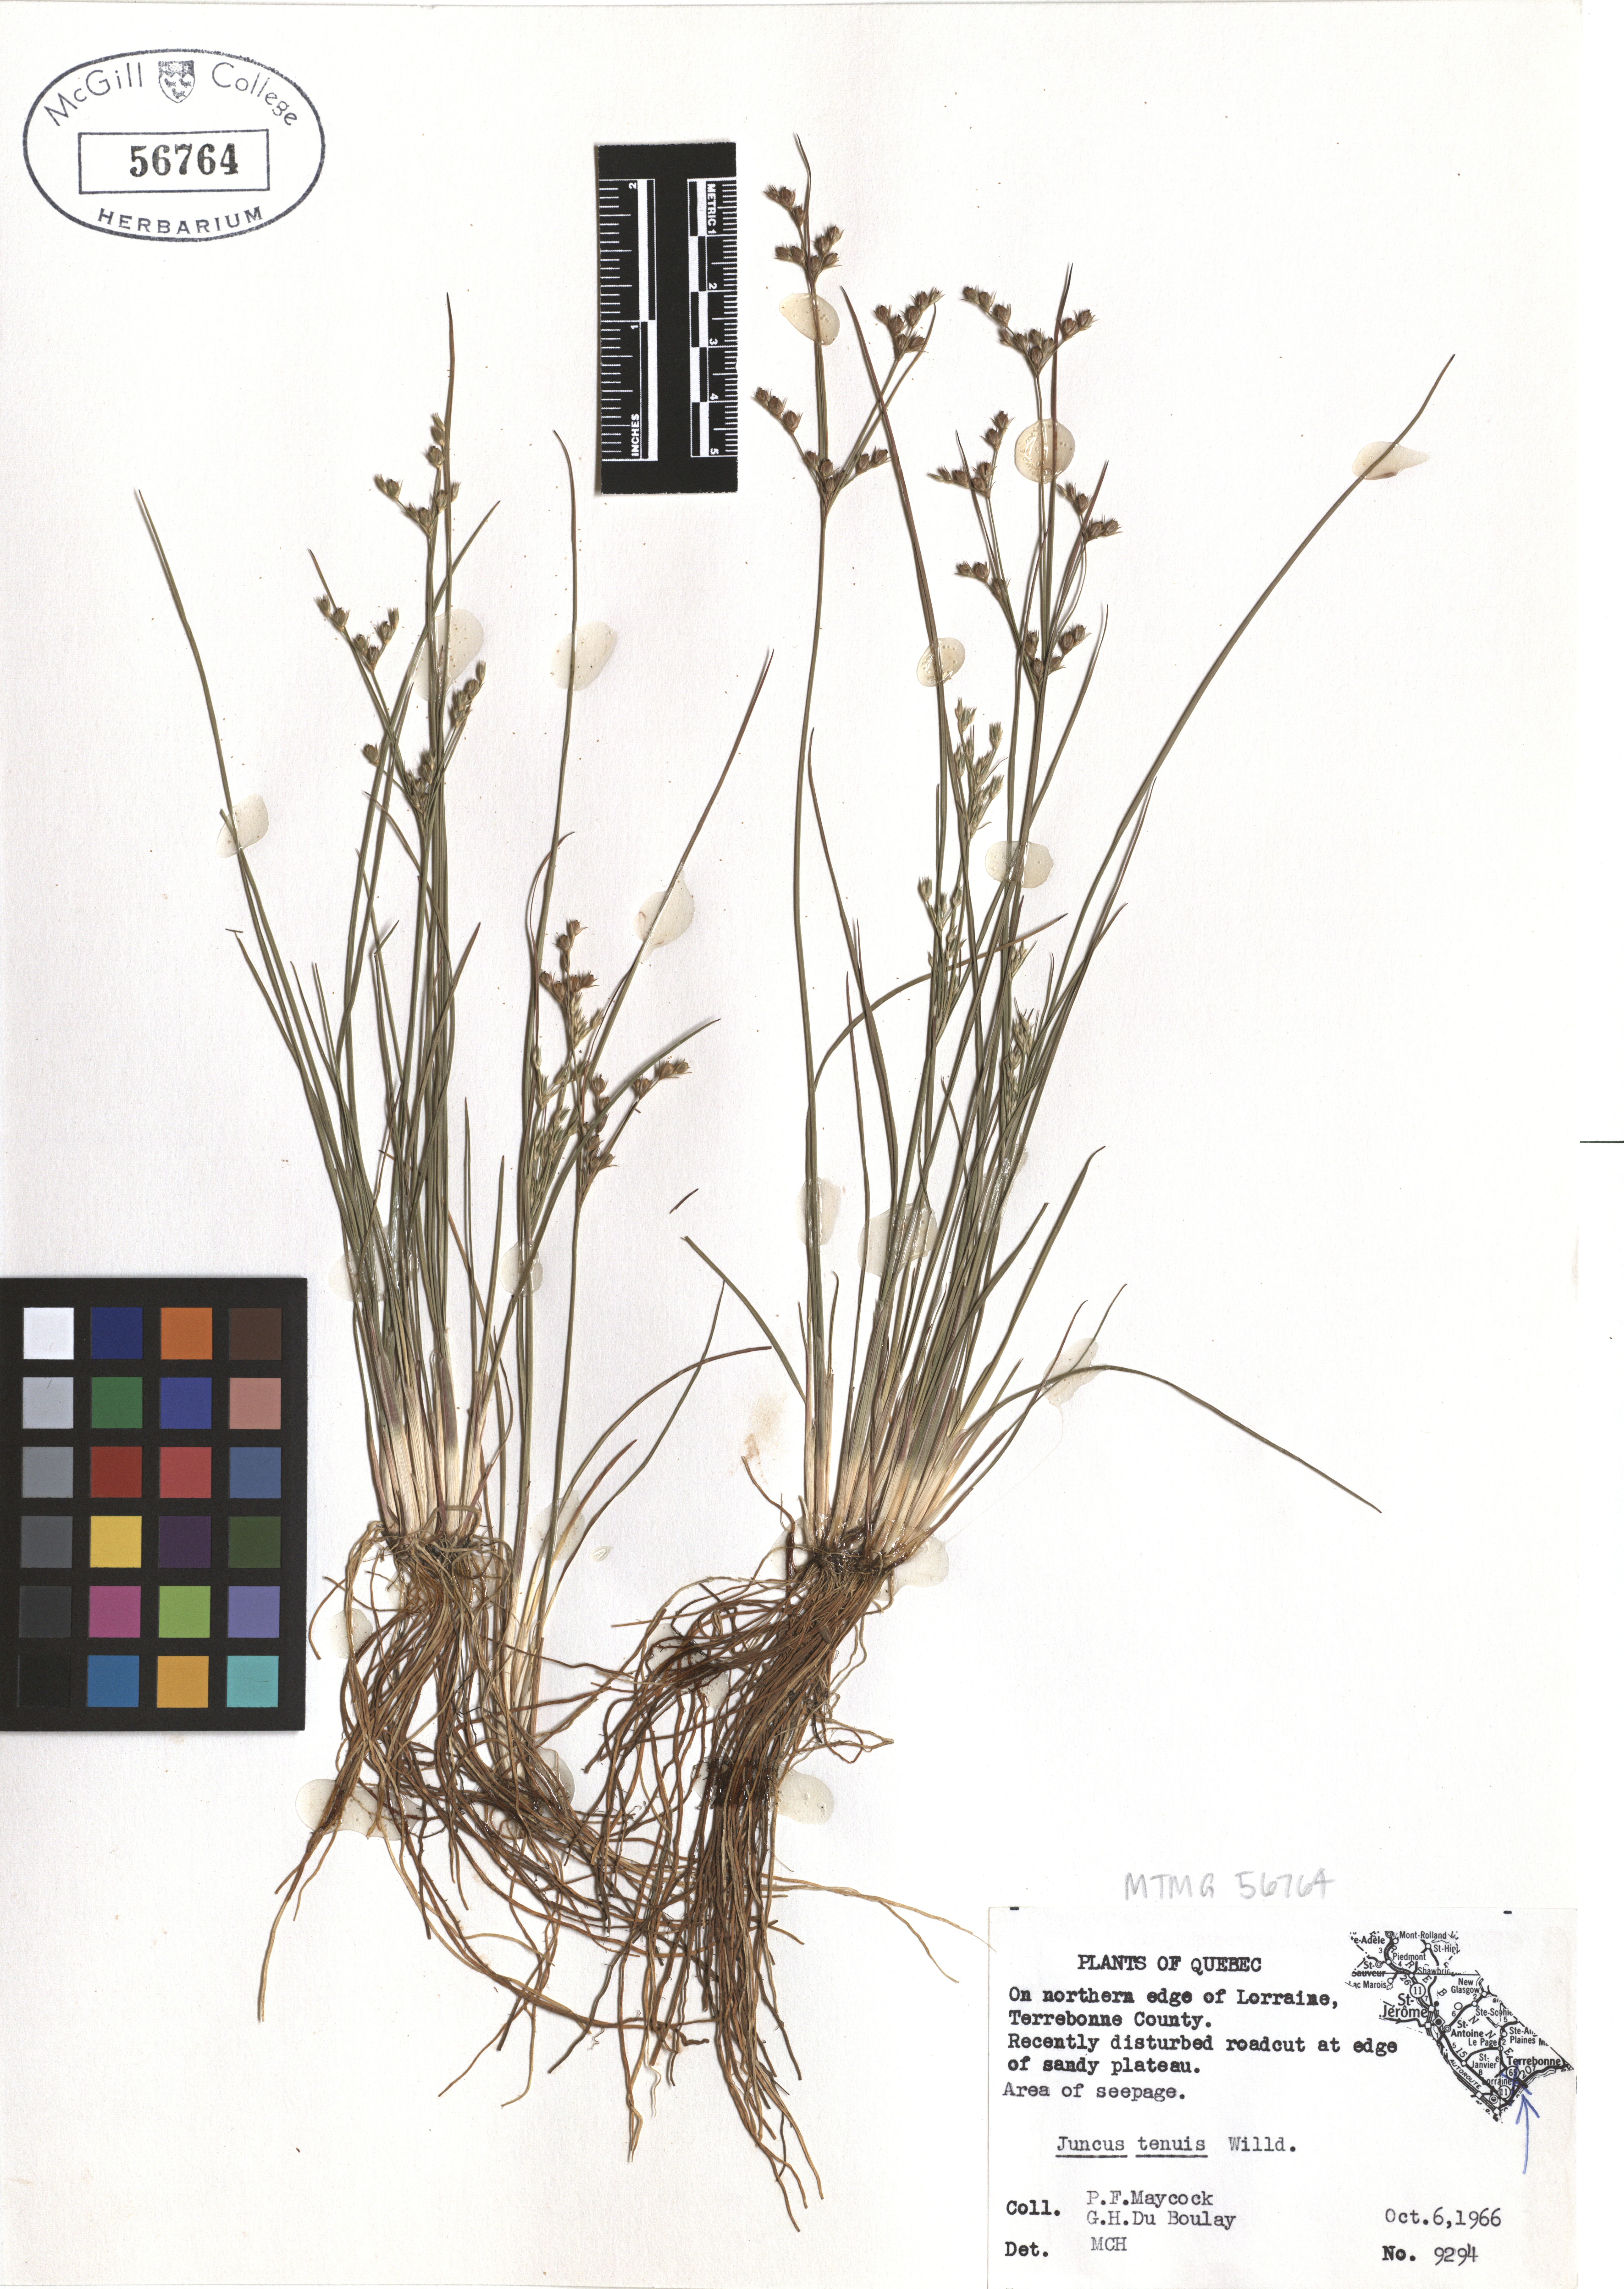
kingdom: Plantae
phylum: Tracheophyta
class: Liliopsida
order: Poales
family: Juncaceae
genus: Juncus
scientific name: Juncus tenuis
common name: Slender rush
